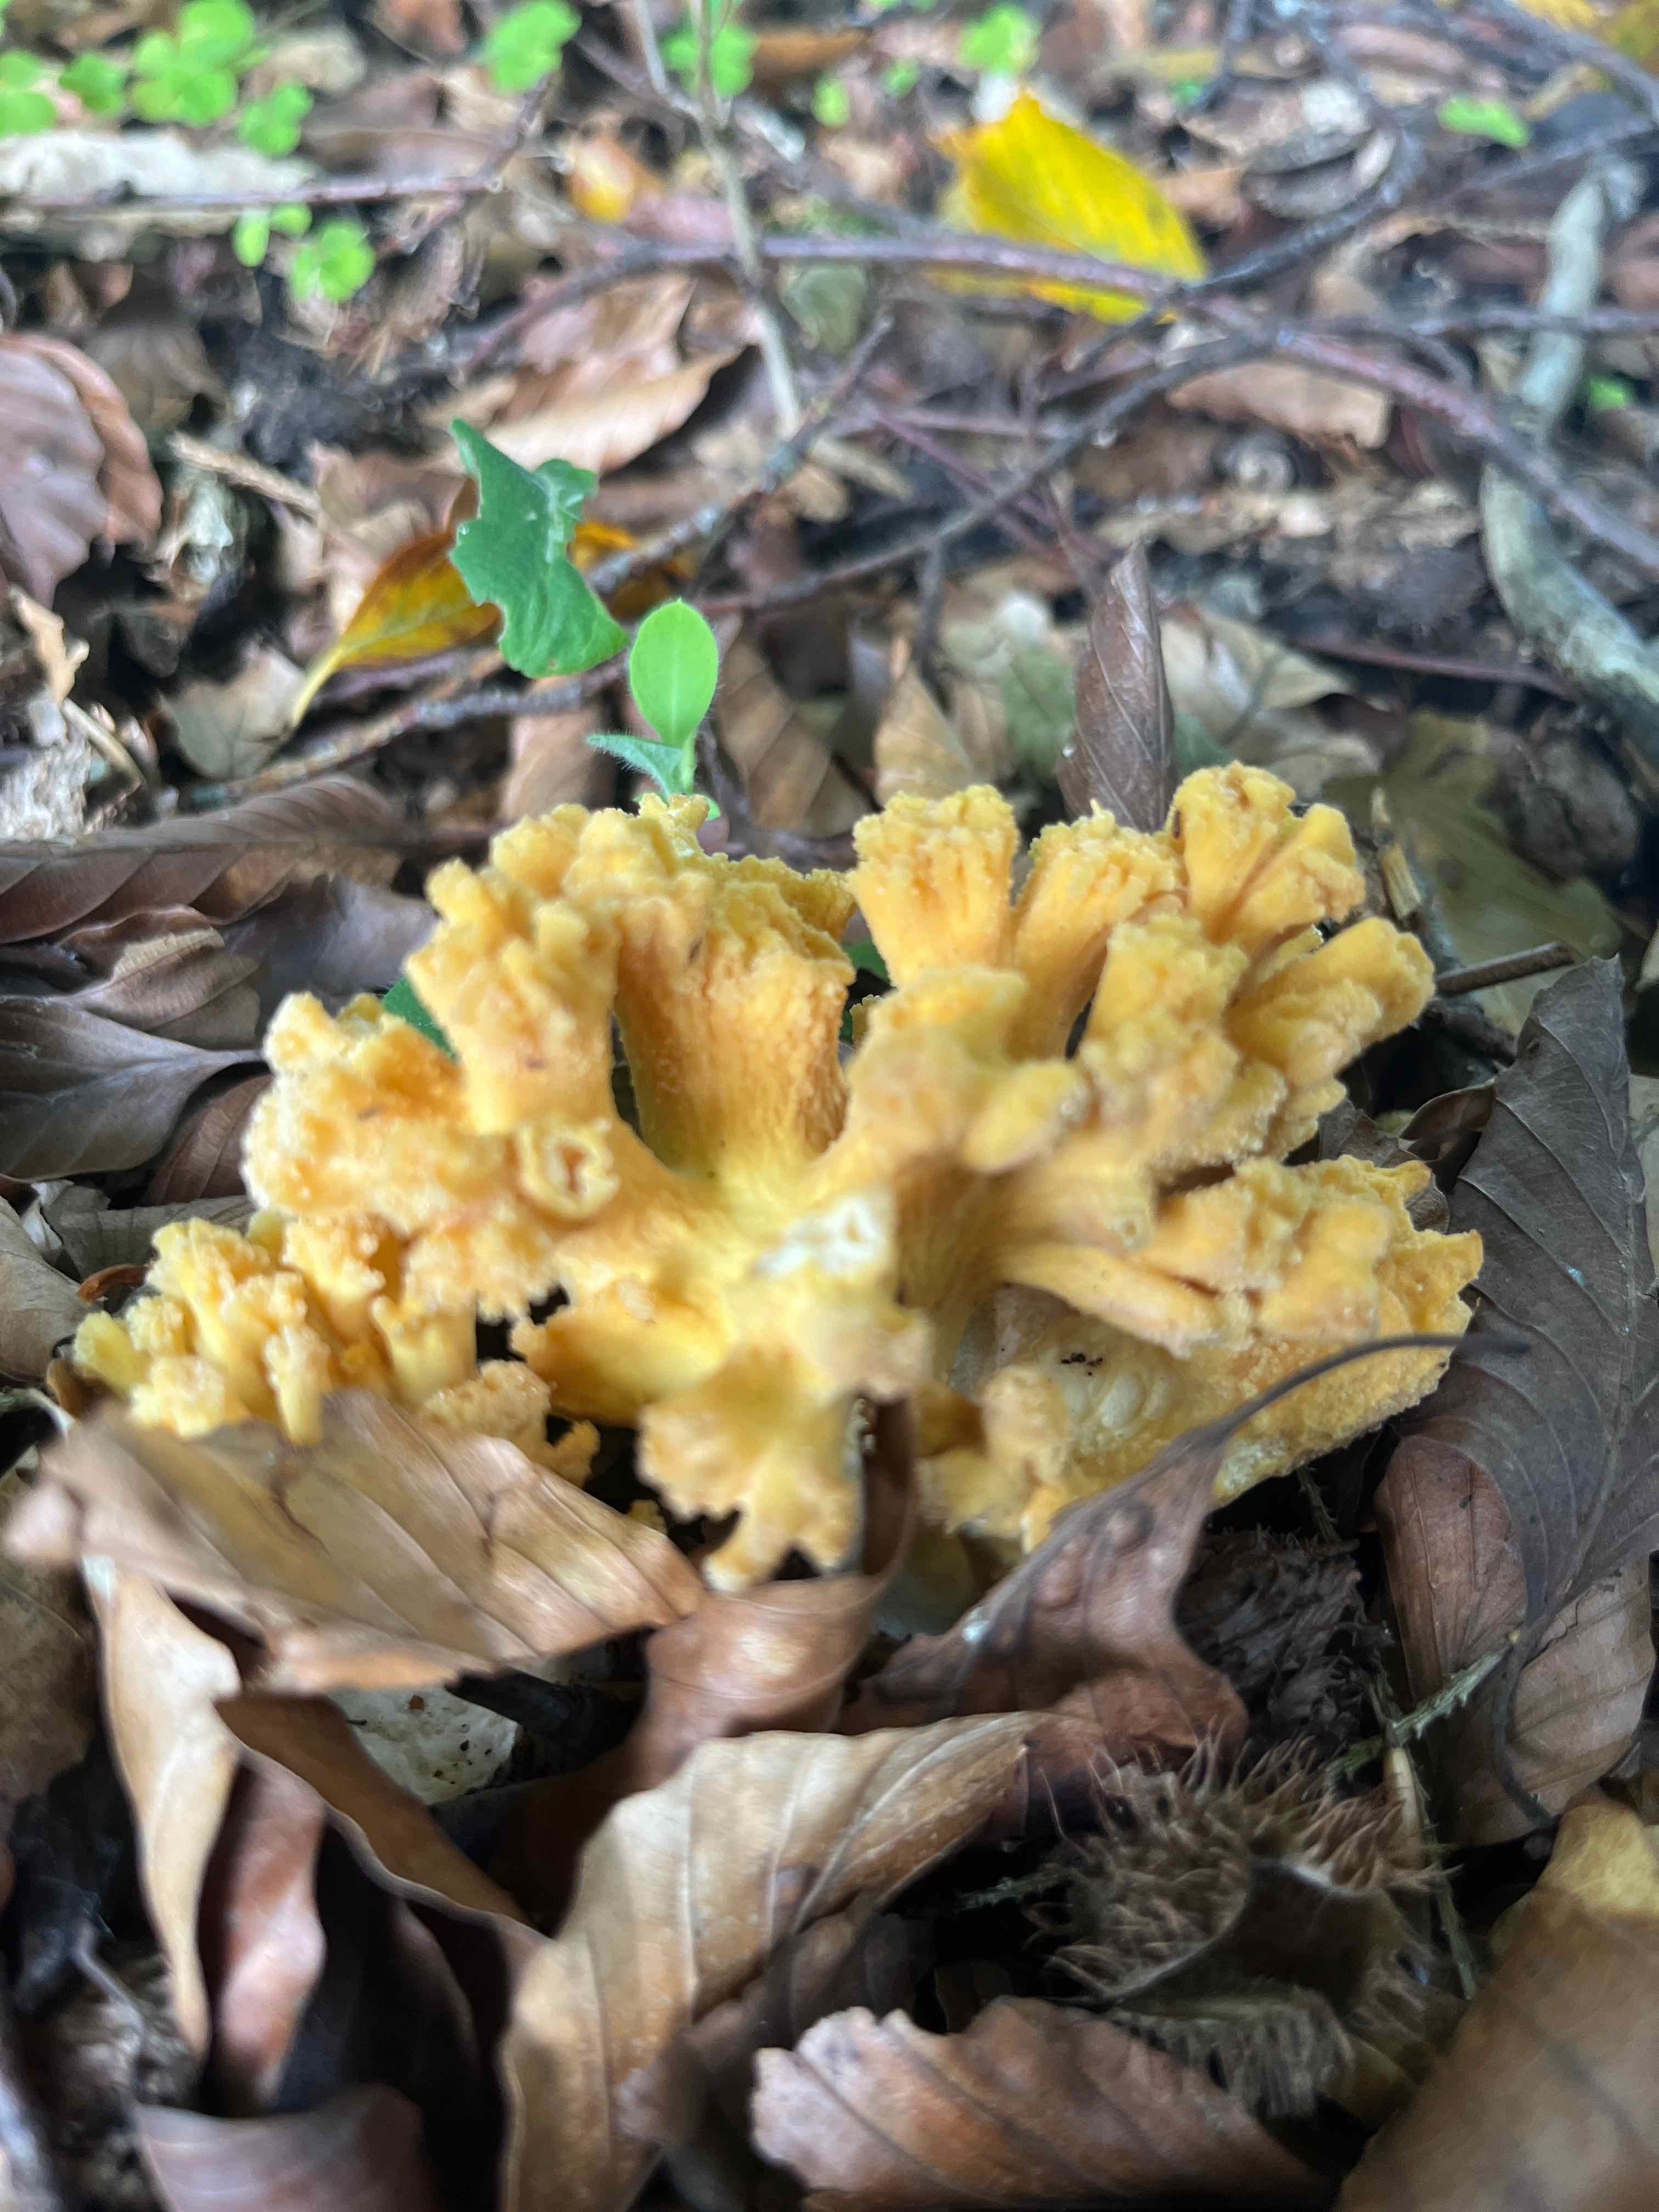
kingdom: Fungi
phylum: Basidiomycota
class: Agaricomycetes
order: Gomphales
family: Gomphaceae
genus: Ramaria
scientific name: Ramaria
